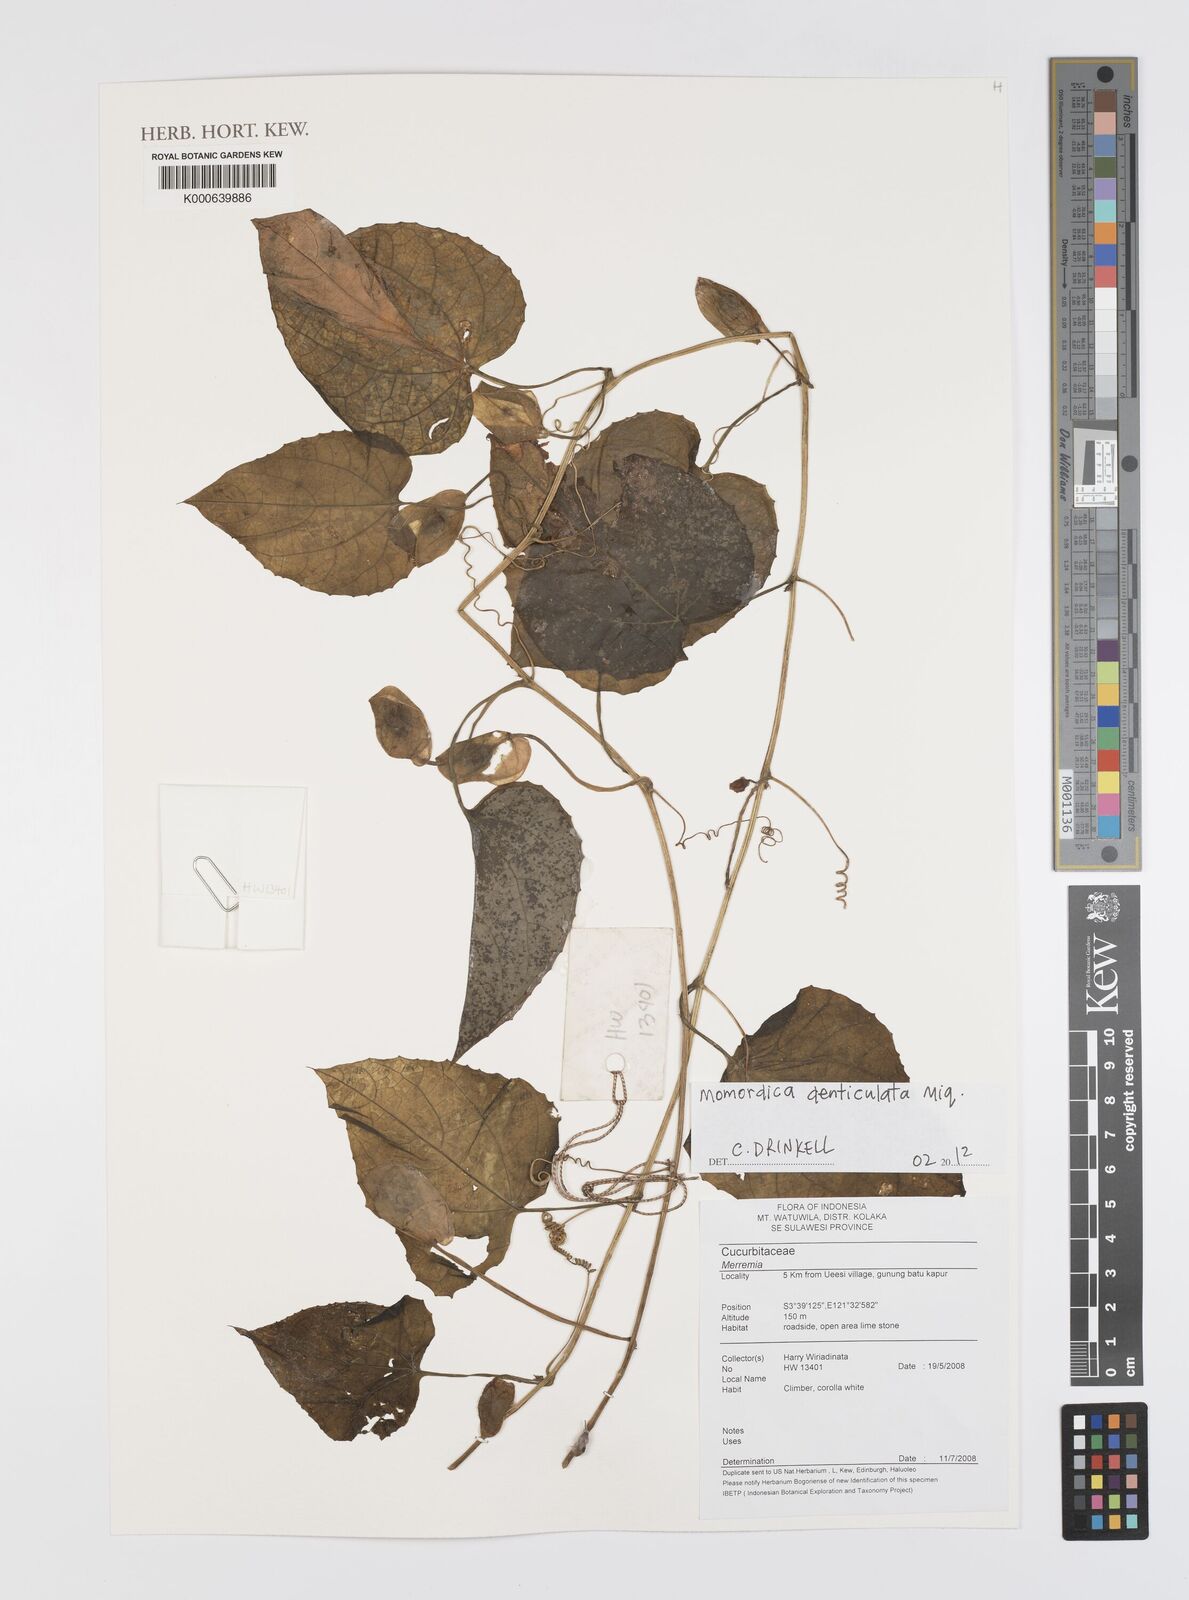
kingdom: Plantae
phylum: Tracheophyta
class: Magnoliopsida
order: Cucurbitales
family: Cucurbitaceae
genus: Momordica
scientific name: Momordica denticulata
